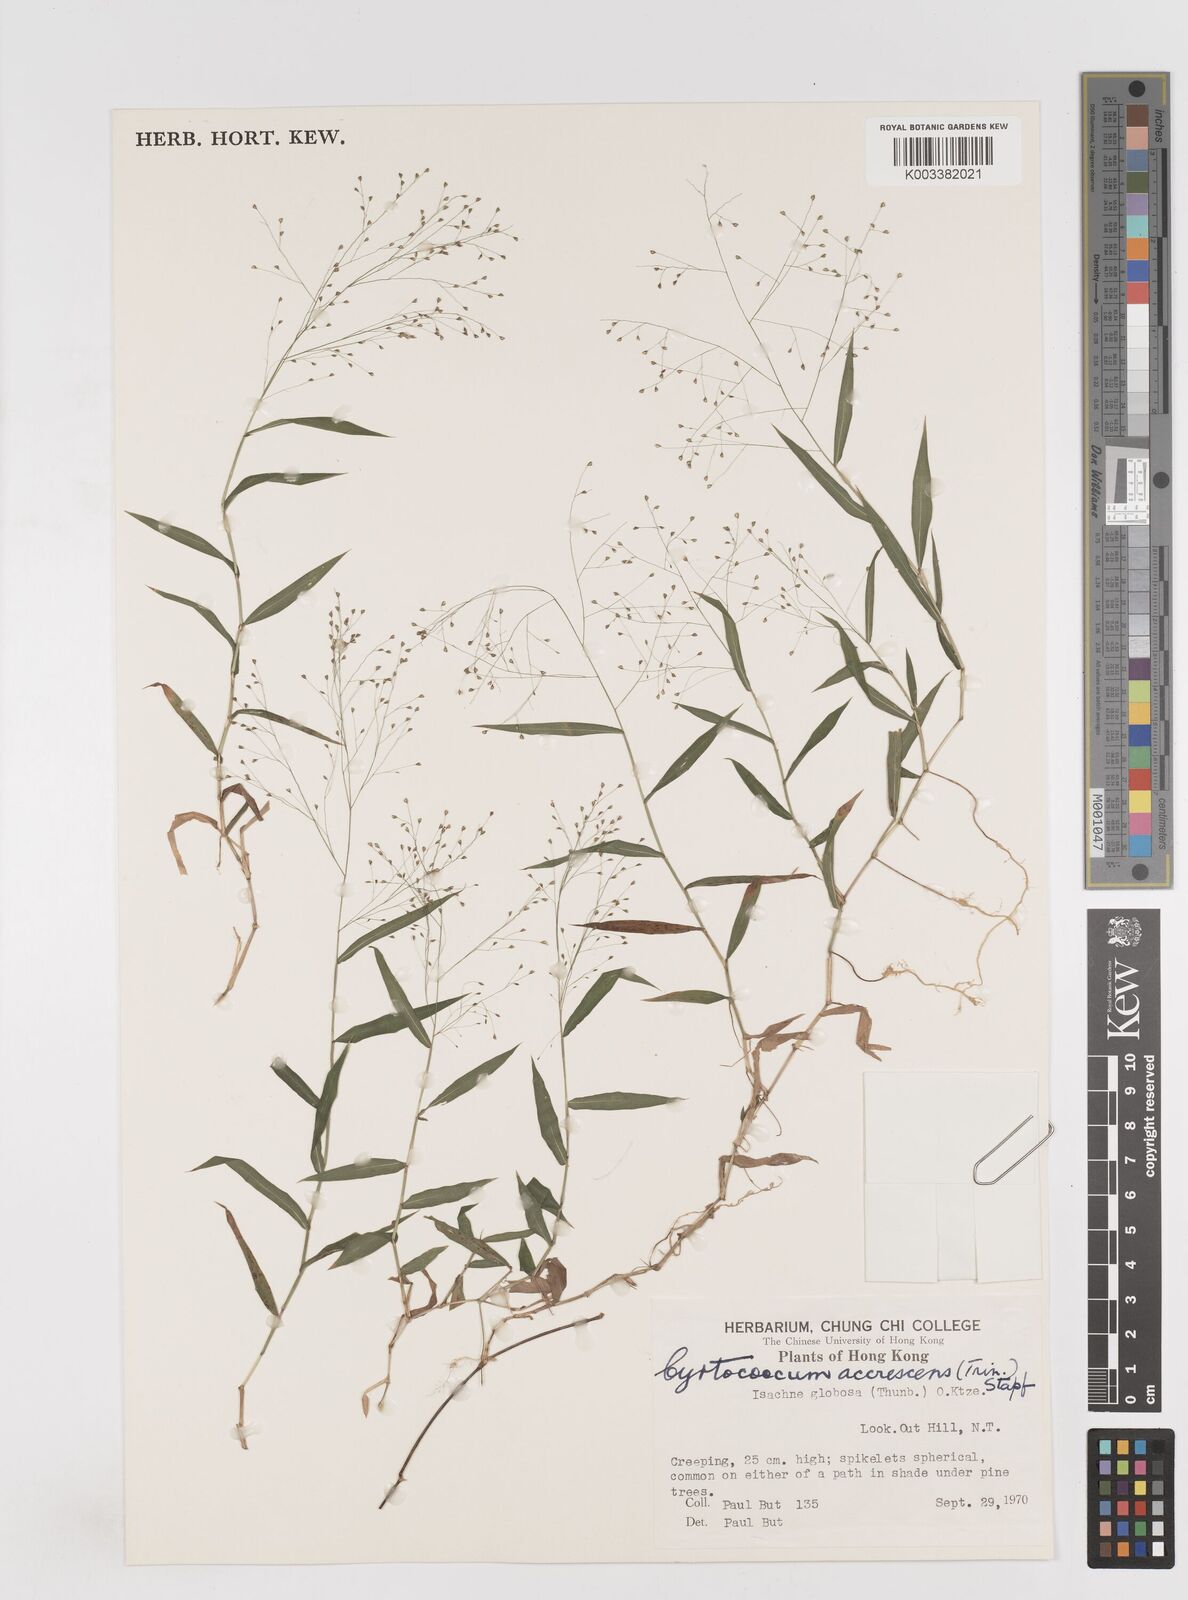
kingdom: Plantae
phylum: Tracheophyta
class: Liliopsida
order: Poales
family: Poaceae
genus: Cyrtococcum
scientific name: Cyrtococcum patens
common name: Broad-leaved bowgrass
